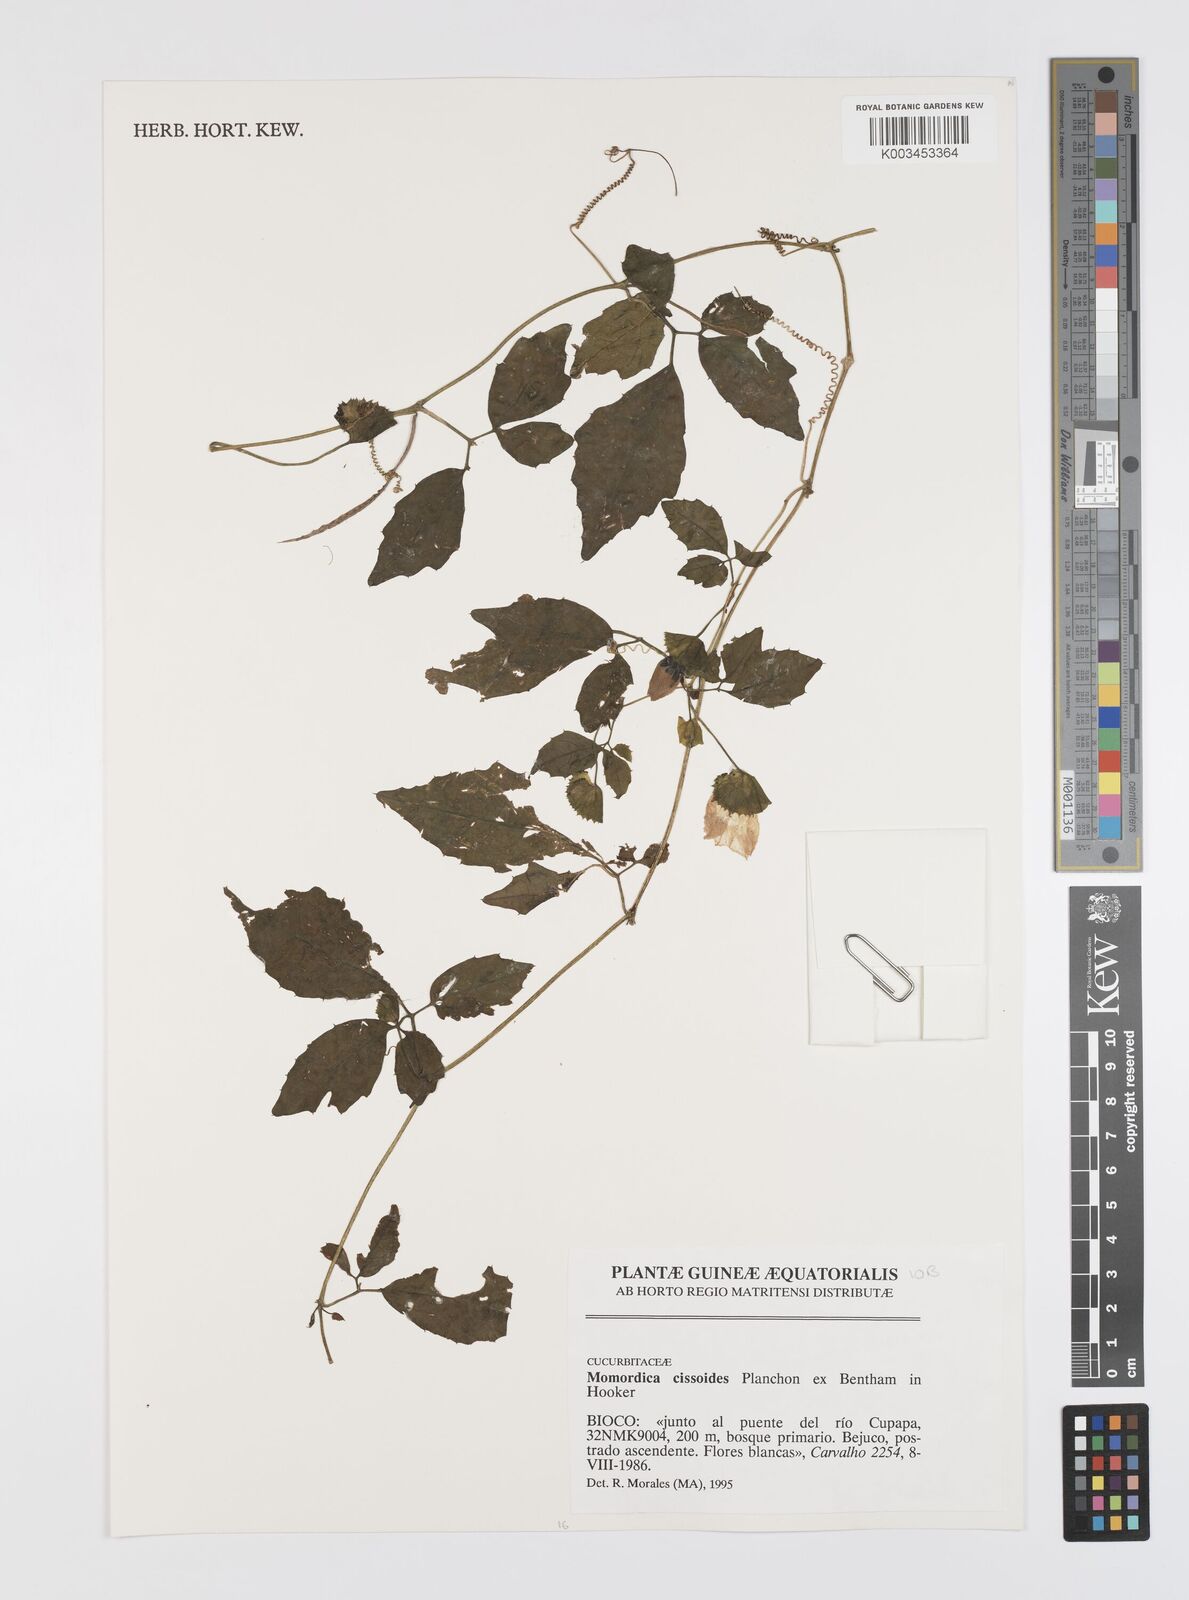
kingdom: Plantae
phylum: Tracheophyta
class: Magnoliopsida
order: Cucurbitales
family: Cucurbitaceae
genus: Momordica
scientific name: Momordica cissoides
